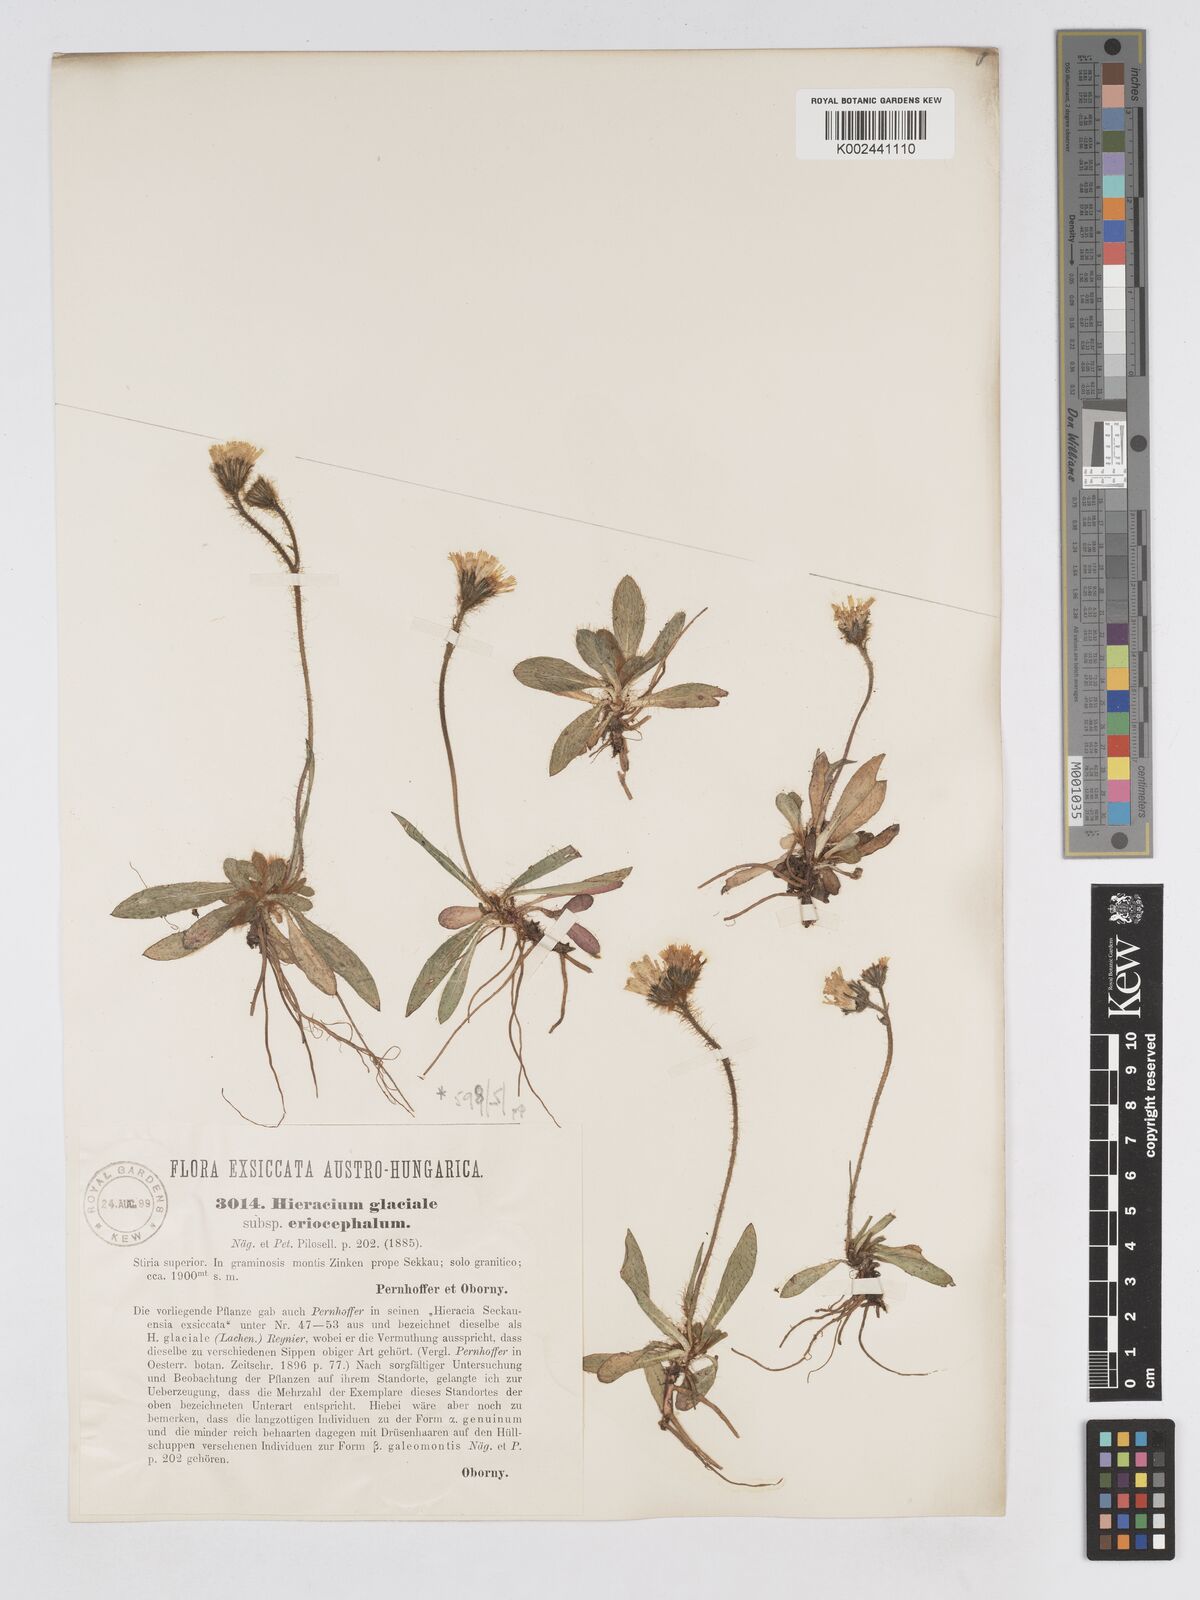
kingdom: Plantae
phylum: Tracheophyta
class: Magnoliopsida
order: Asterales
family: Asteraceae
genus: Pilosella
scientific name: Pilosella lathraea
